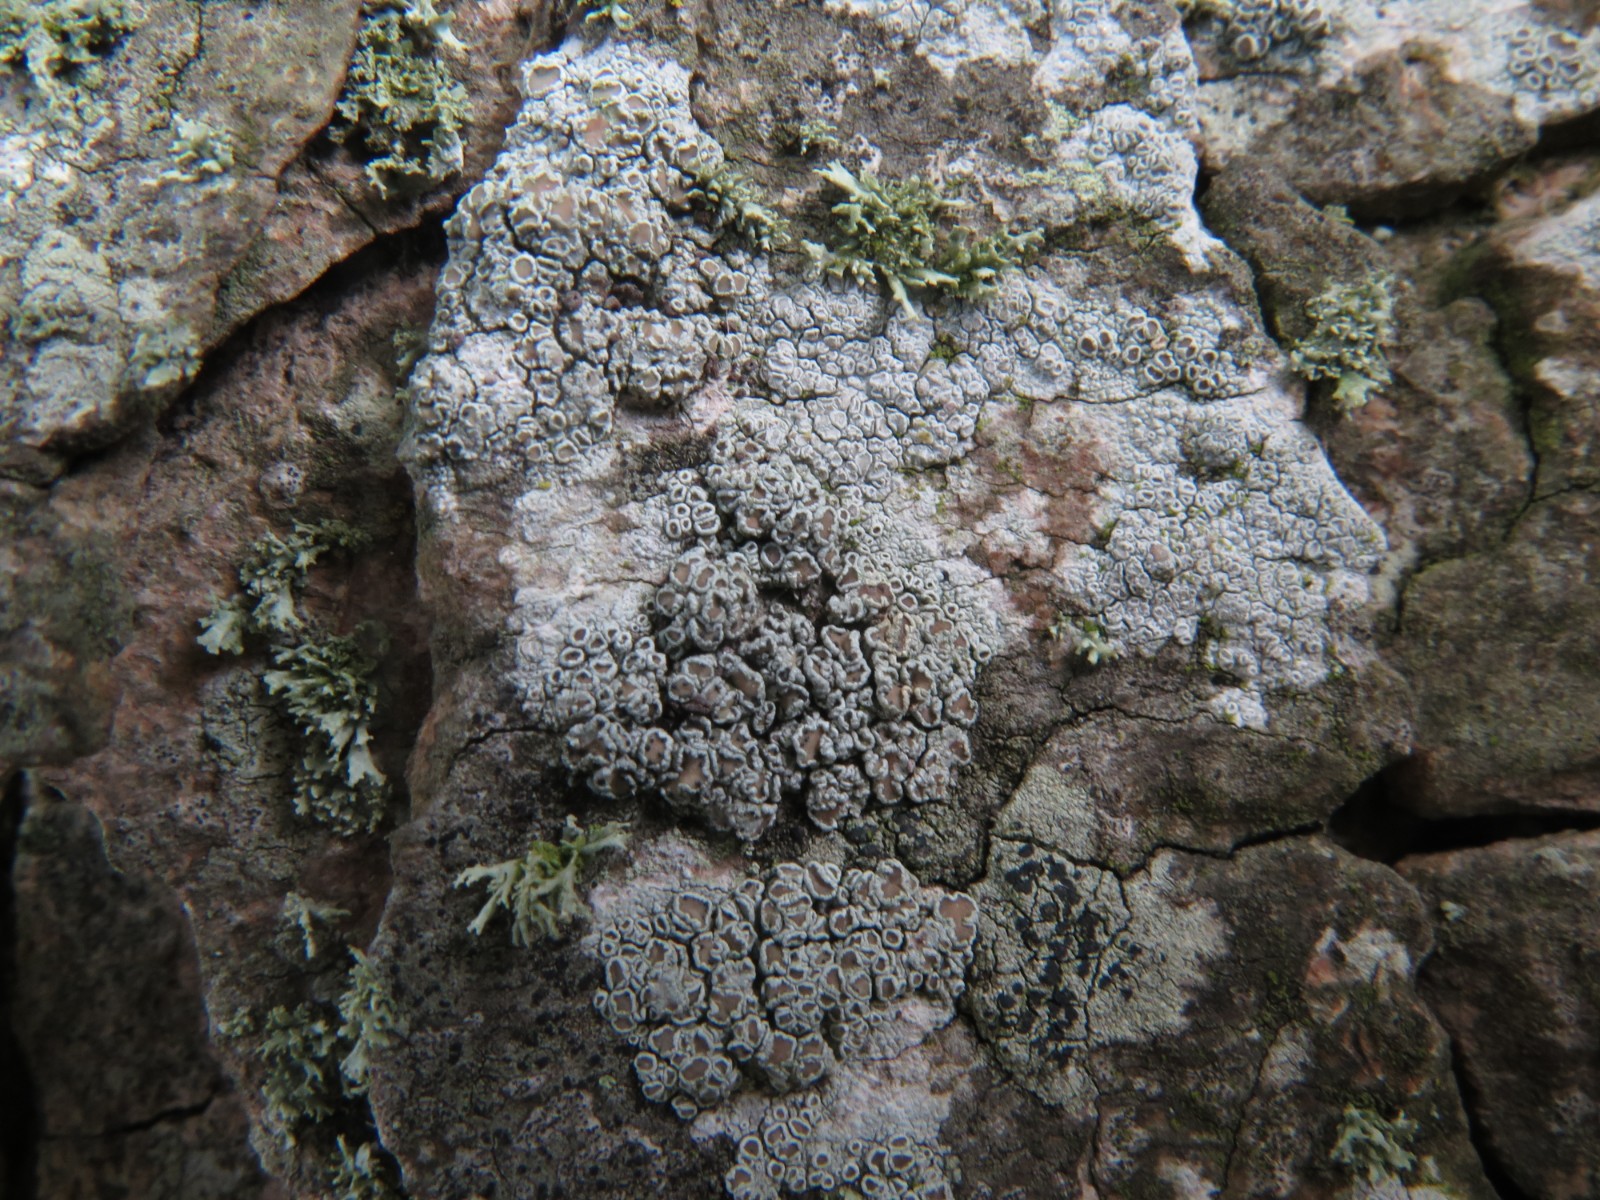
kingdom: Fungi
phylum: Ascomycota
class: Lecanoromycetes
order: Lecanorales
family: Lecanoraceae
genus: Lecanora
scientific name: Lecanora chlarotera
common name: brun kantskivelav
